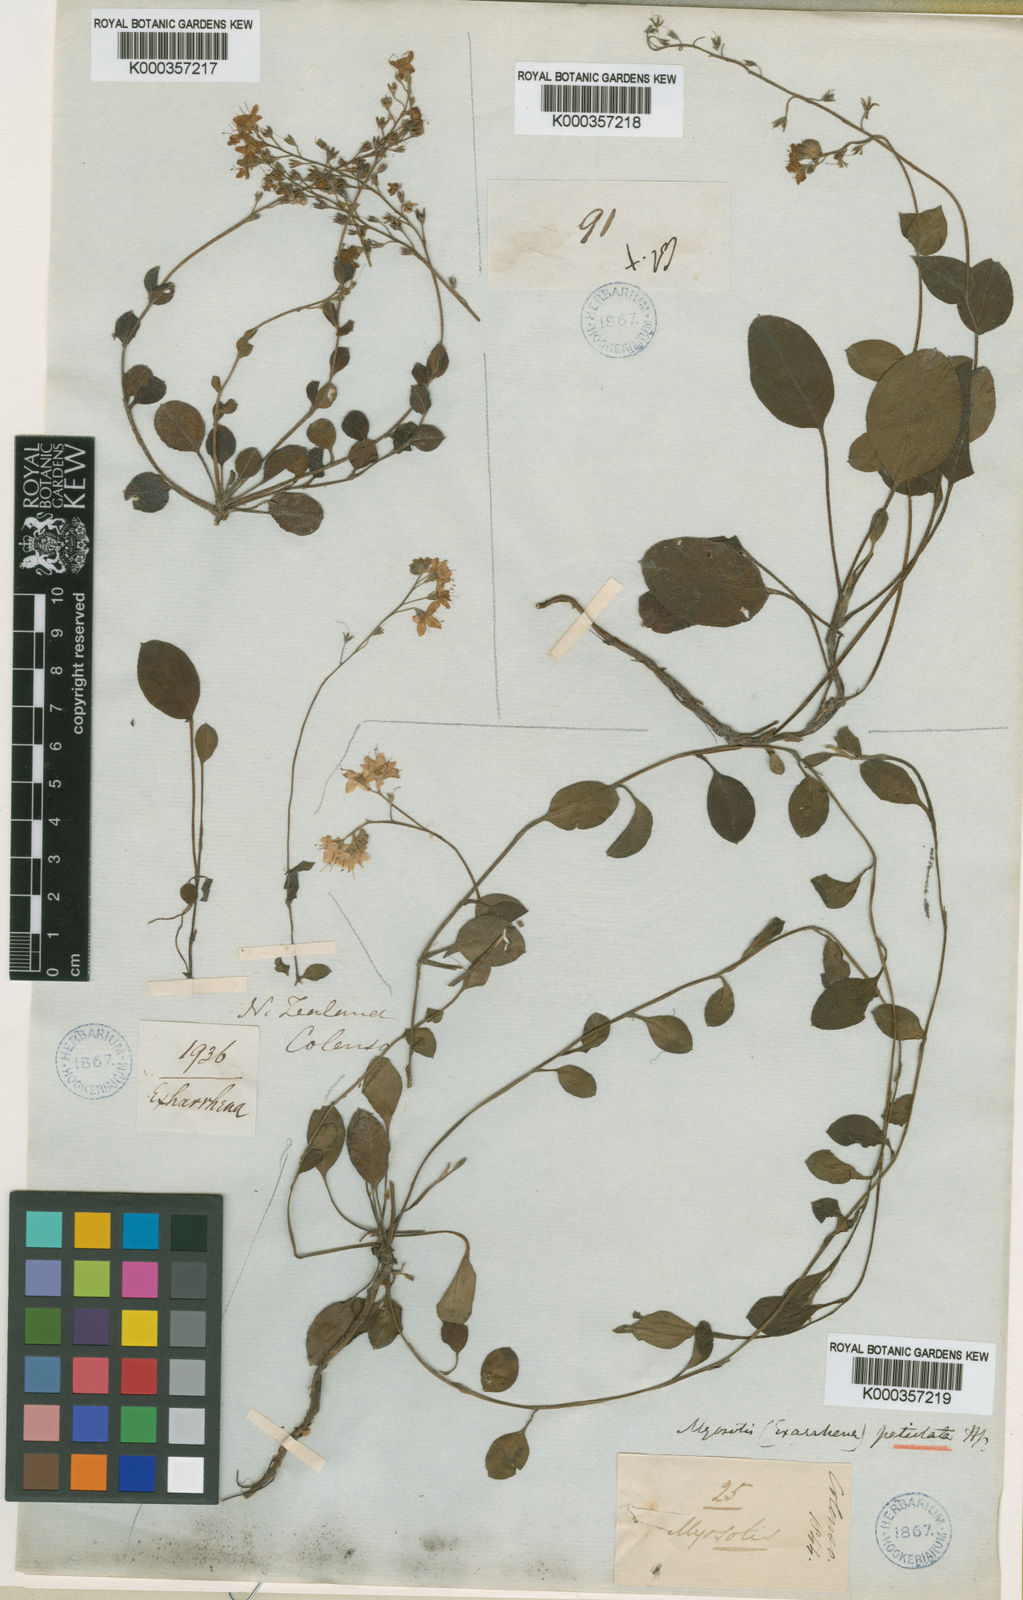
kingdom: Plantae
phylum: Tracheophyta
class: Magnoliopsida
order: Boraginales
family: Boraginaceae
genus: Myosotis
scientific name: Myosotis petiolata
